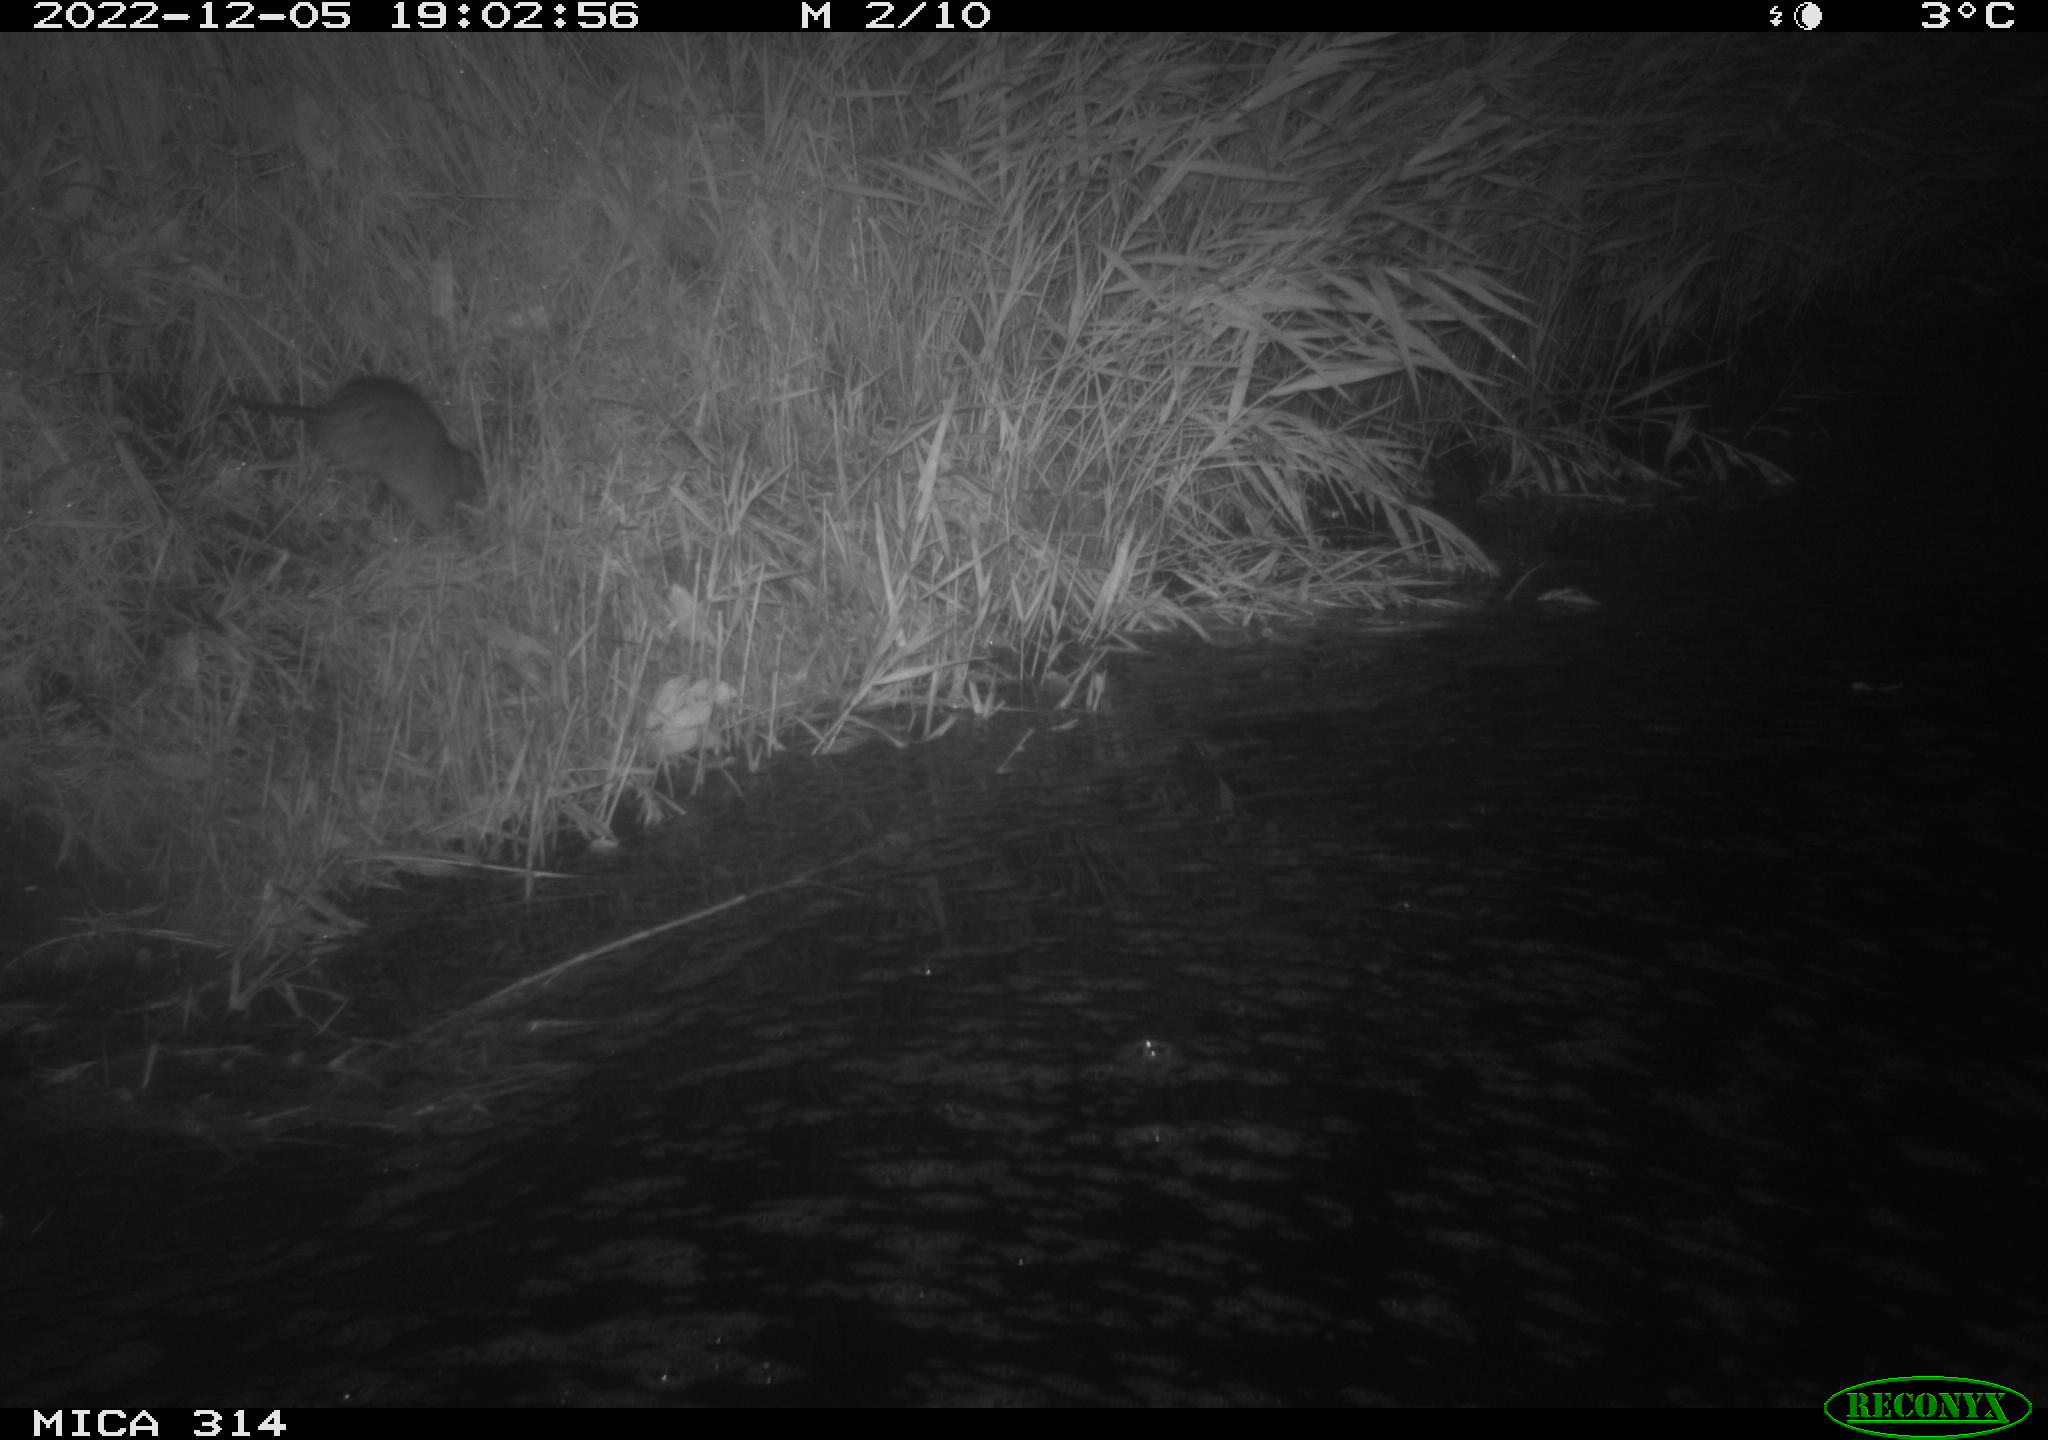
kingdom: Animalia
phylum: Chordata
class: Mammalia
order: Rodentia
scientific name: Rodentia
